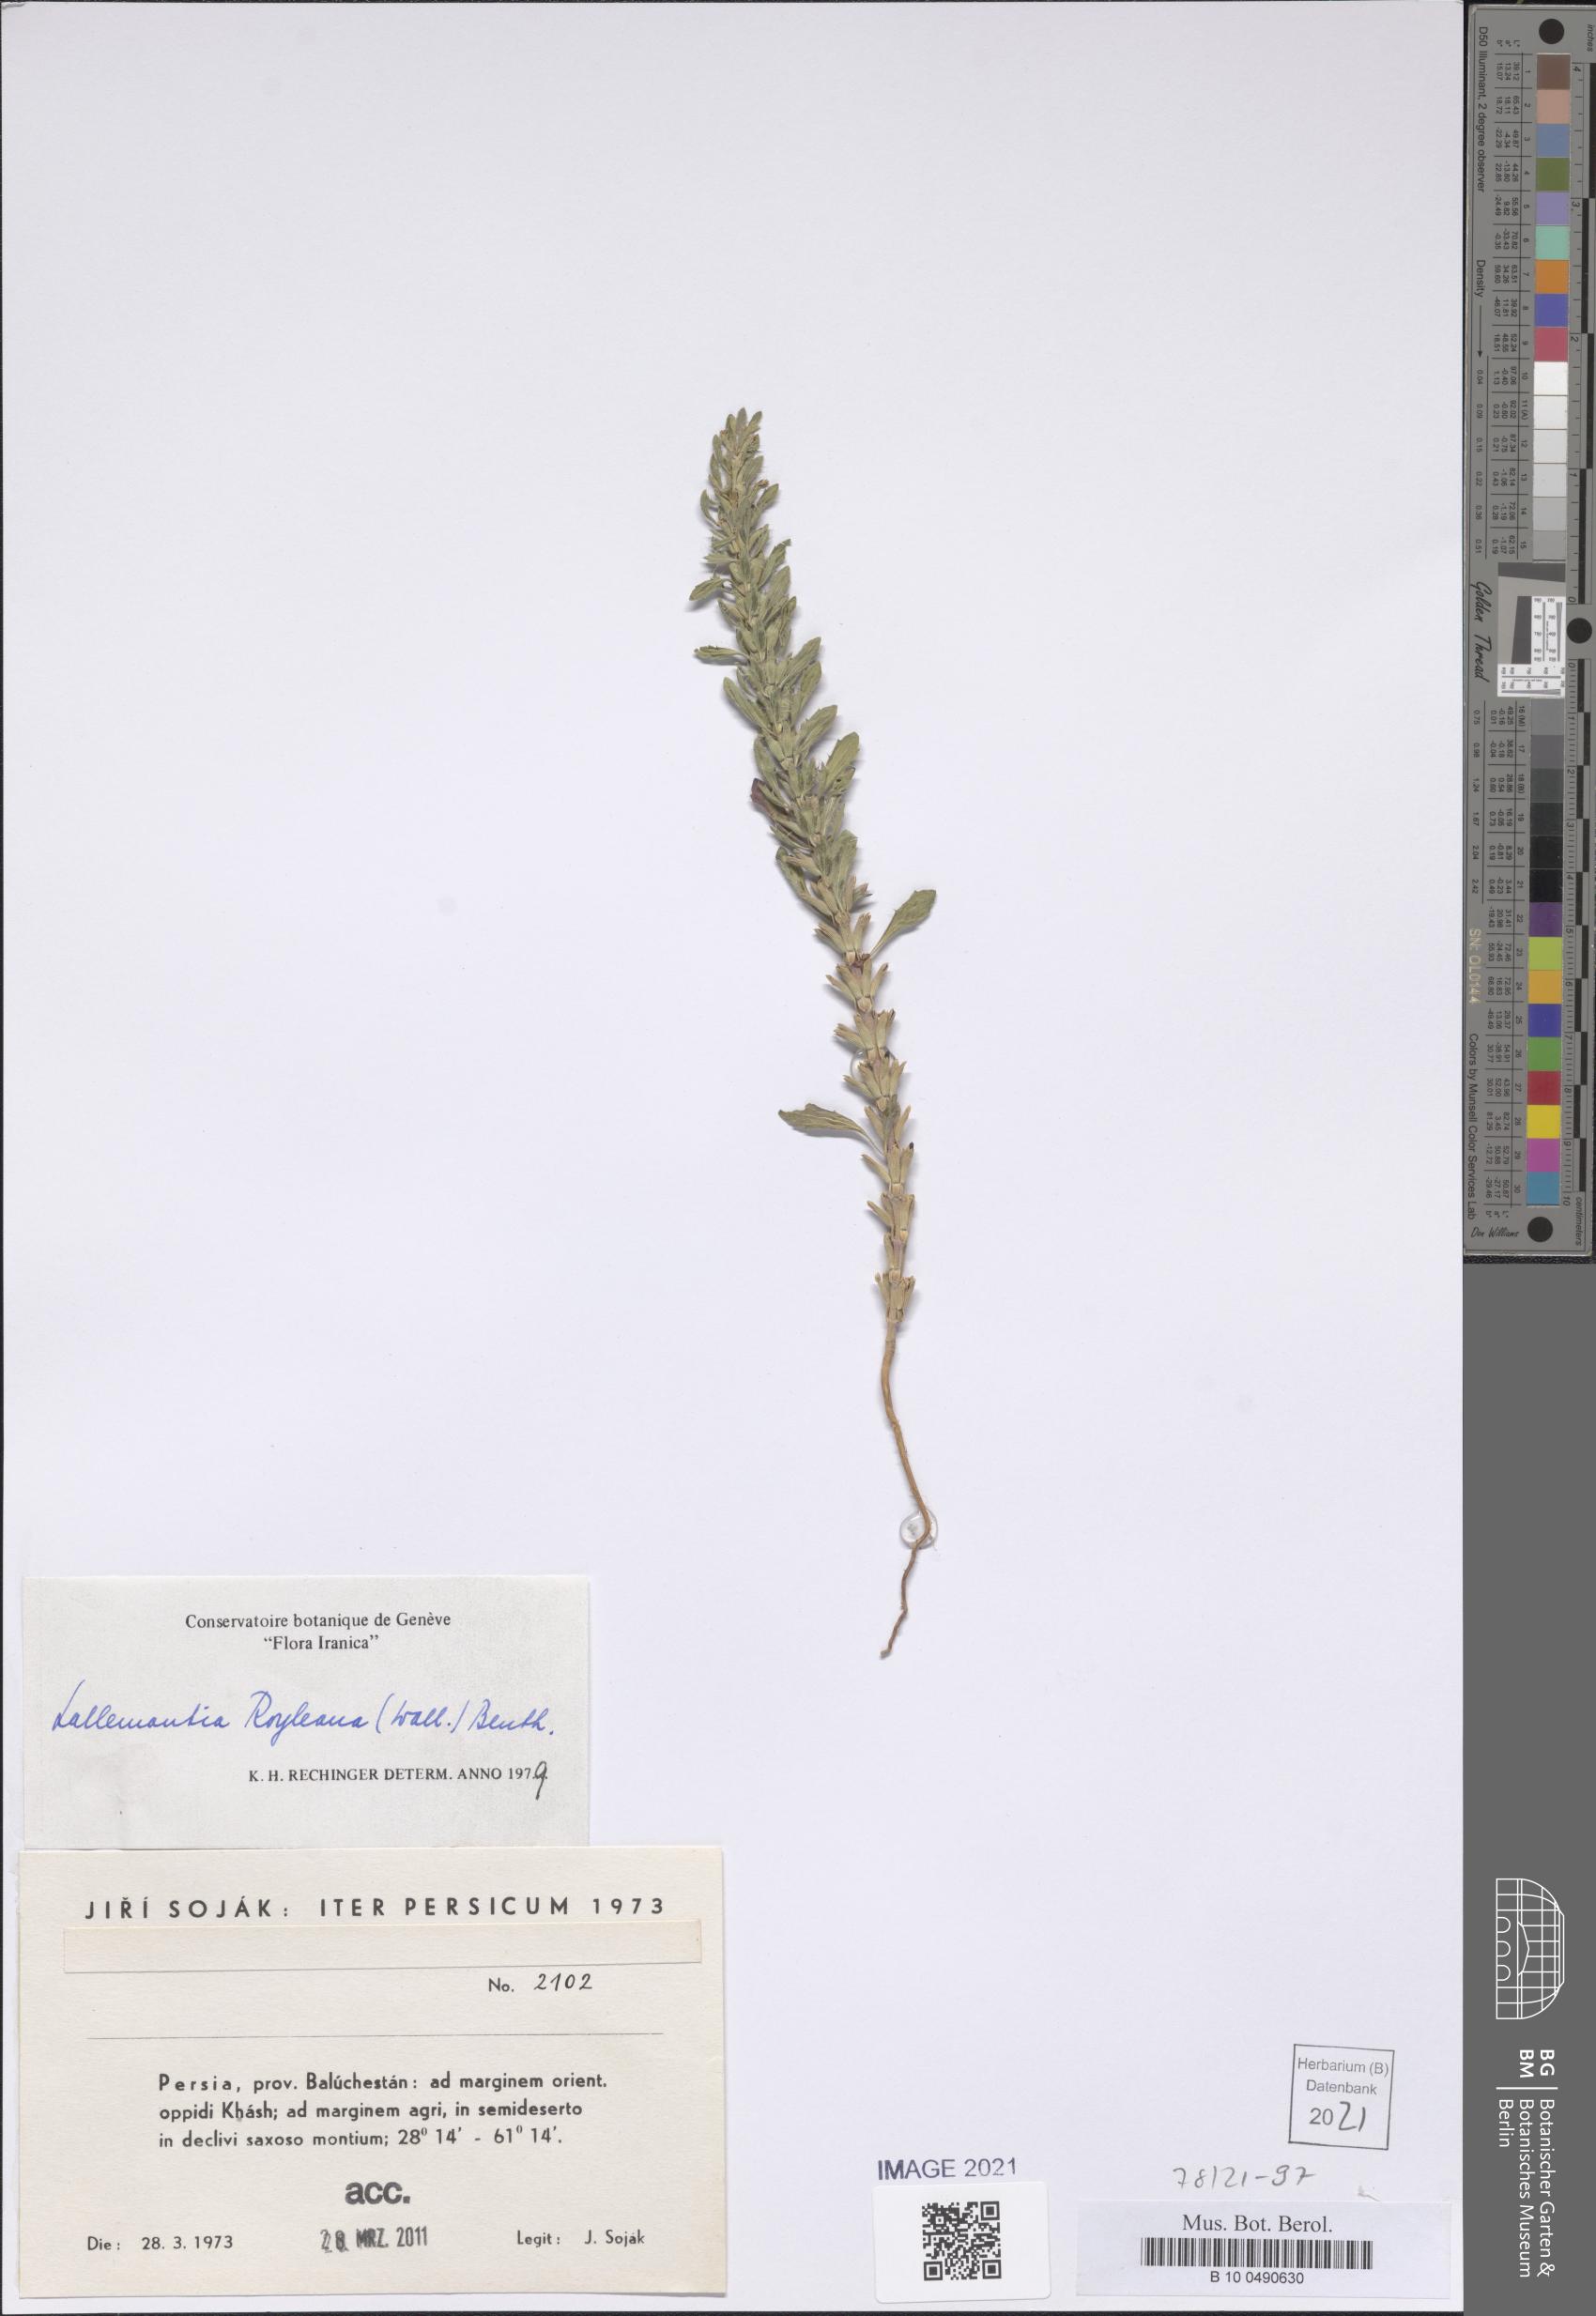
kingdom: Plantae
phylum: Tracheophyta
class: Magnoliopsida
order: Lamiales
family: Lamiaceae
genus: Lallemantia
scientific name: Lallemantia royleana
